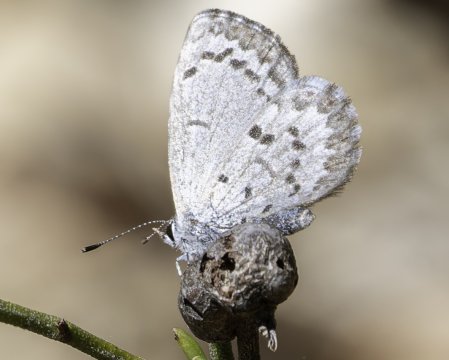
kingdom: Animalia
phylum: Arthropoda
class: Insecta
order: Lepidoptera
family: Lycaenidae
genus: Celastrina
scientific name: Celastrina ladon
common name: Spring Azure
